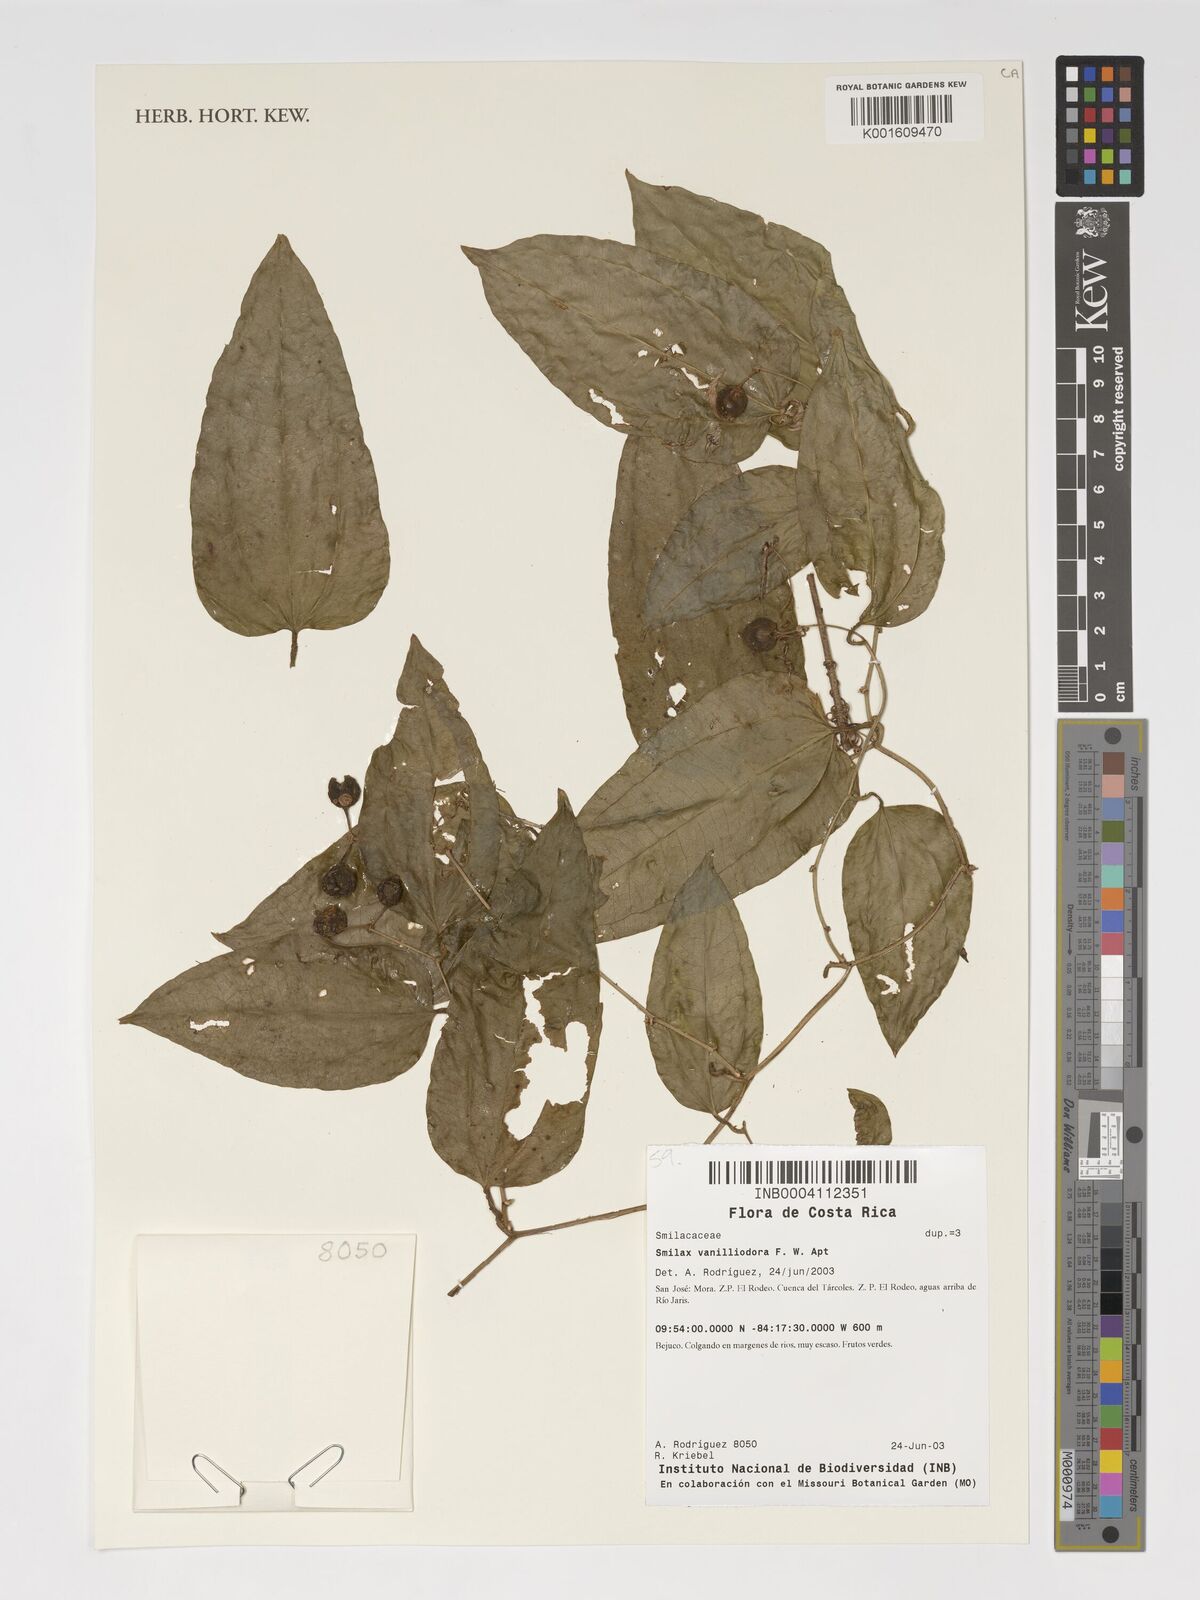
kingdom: Plantae
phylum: Tracheophyta
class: Liliopsida
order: Liliales
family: Smilacaceae
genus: Smilax
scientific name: Smilax officinalis
